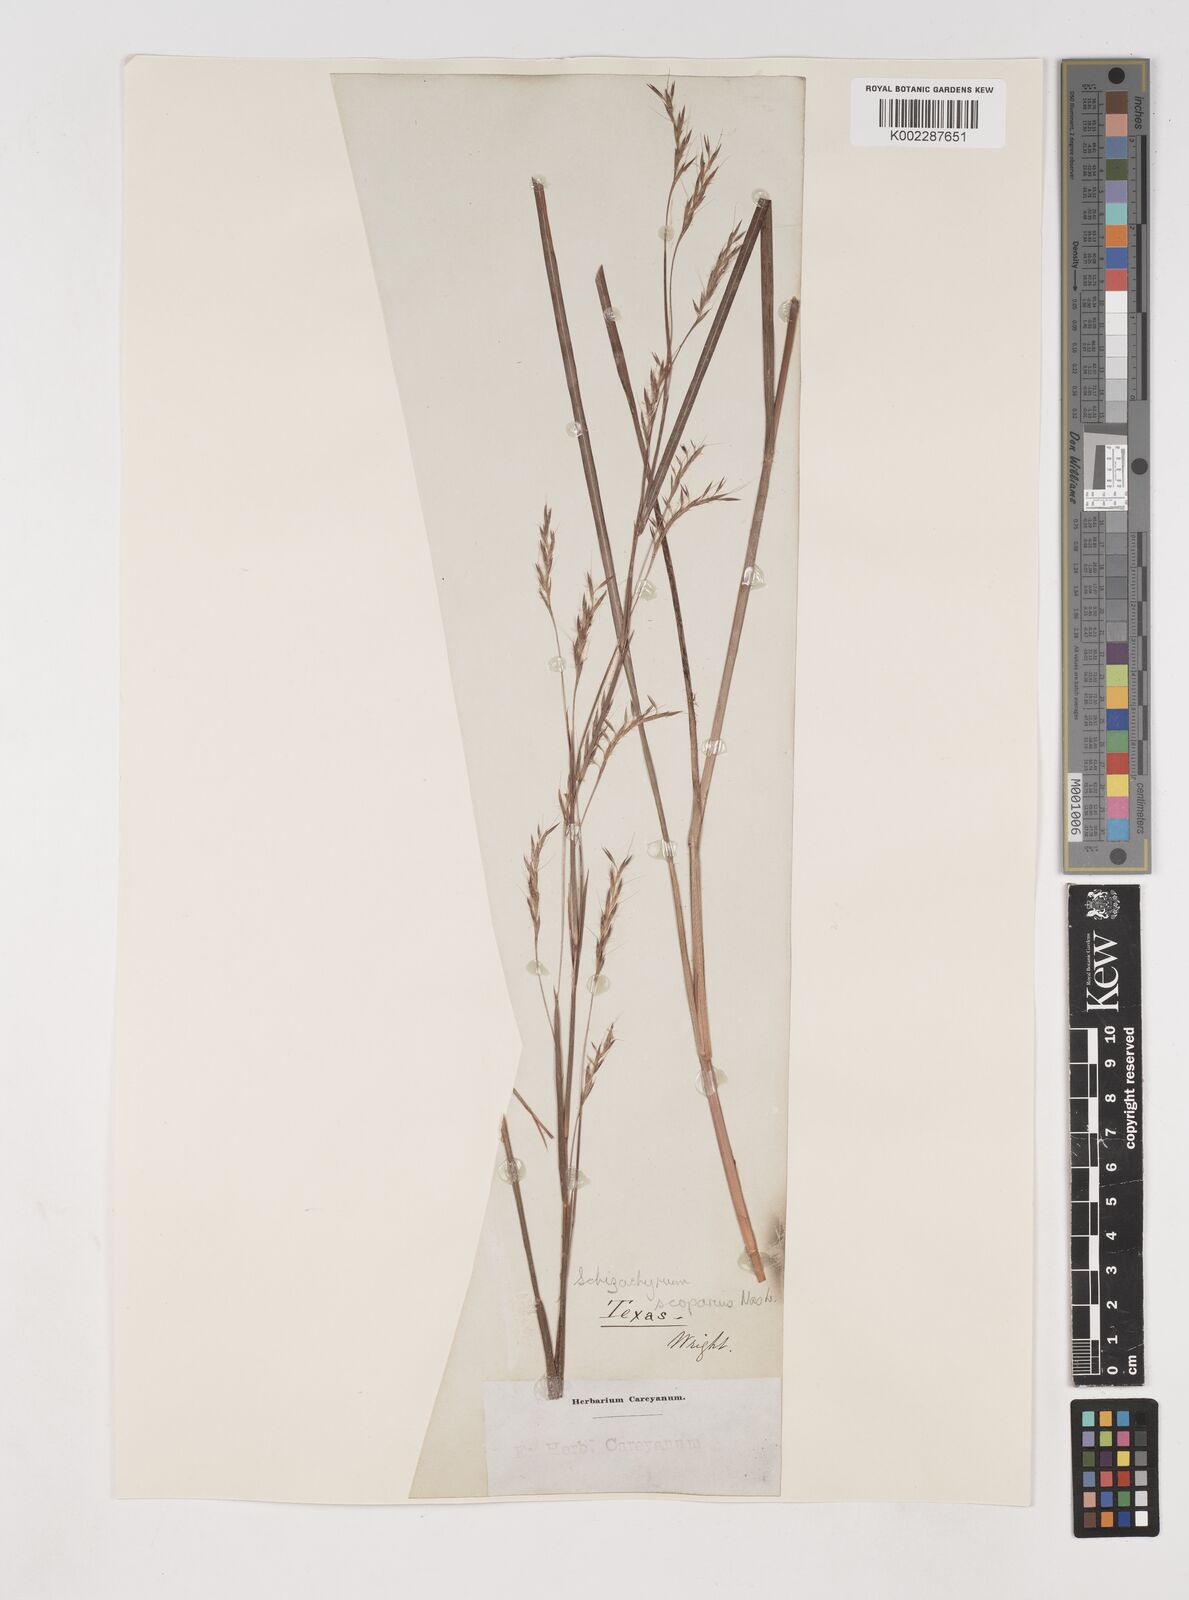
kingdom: Plantae
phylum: Tracheophyta
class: Liliopsida
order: Poales
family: Poaceae
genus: Schizachyrium
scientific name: Schizachyrium scoparium
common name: Little bluestem
